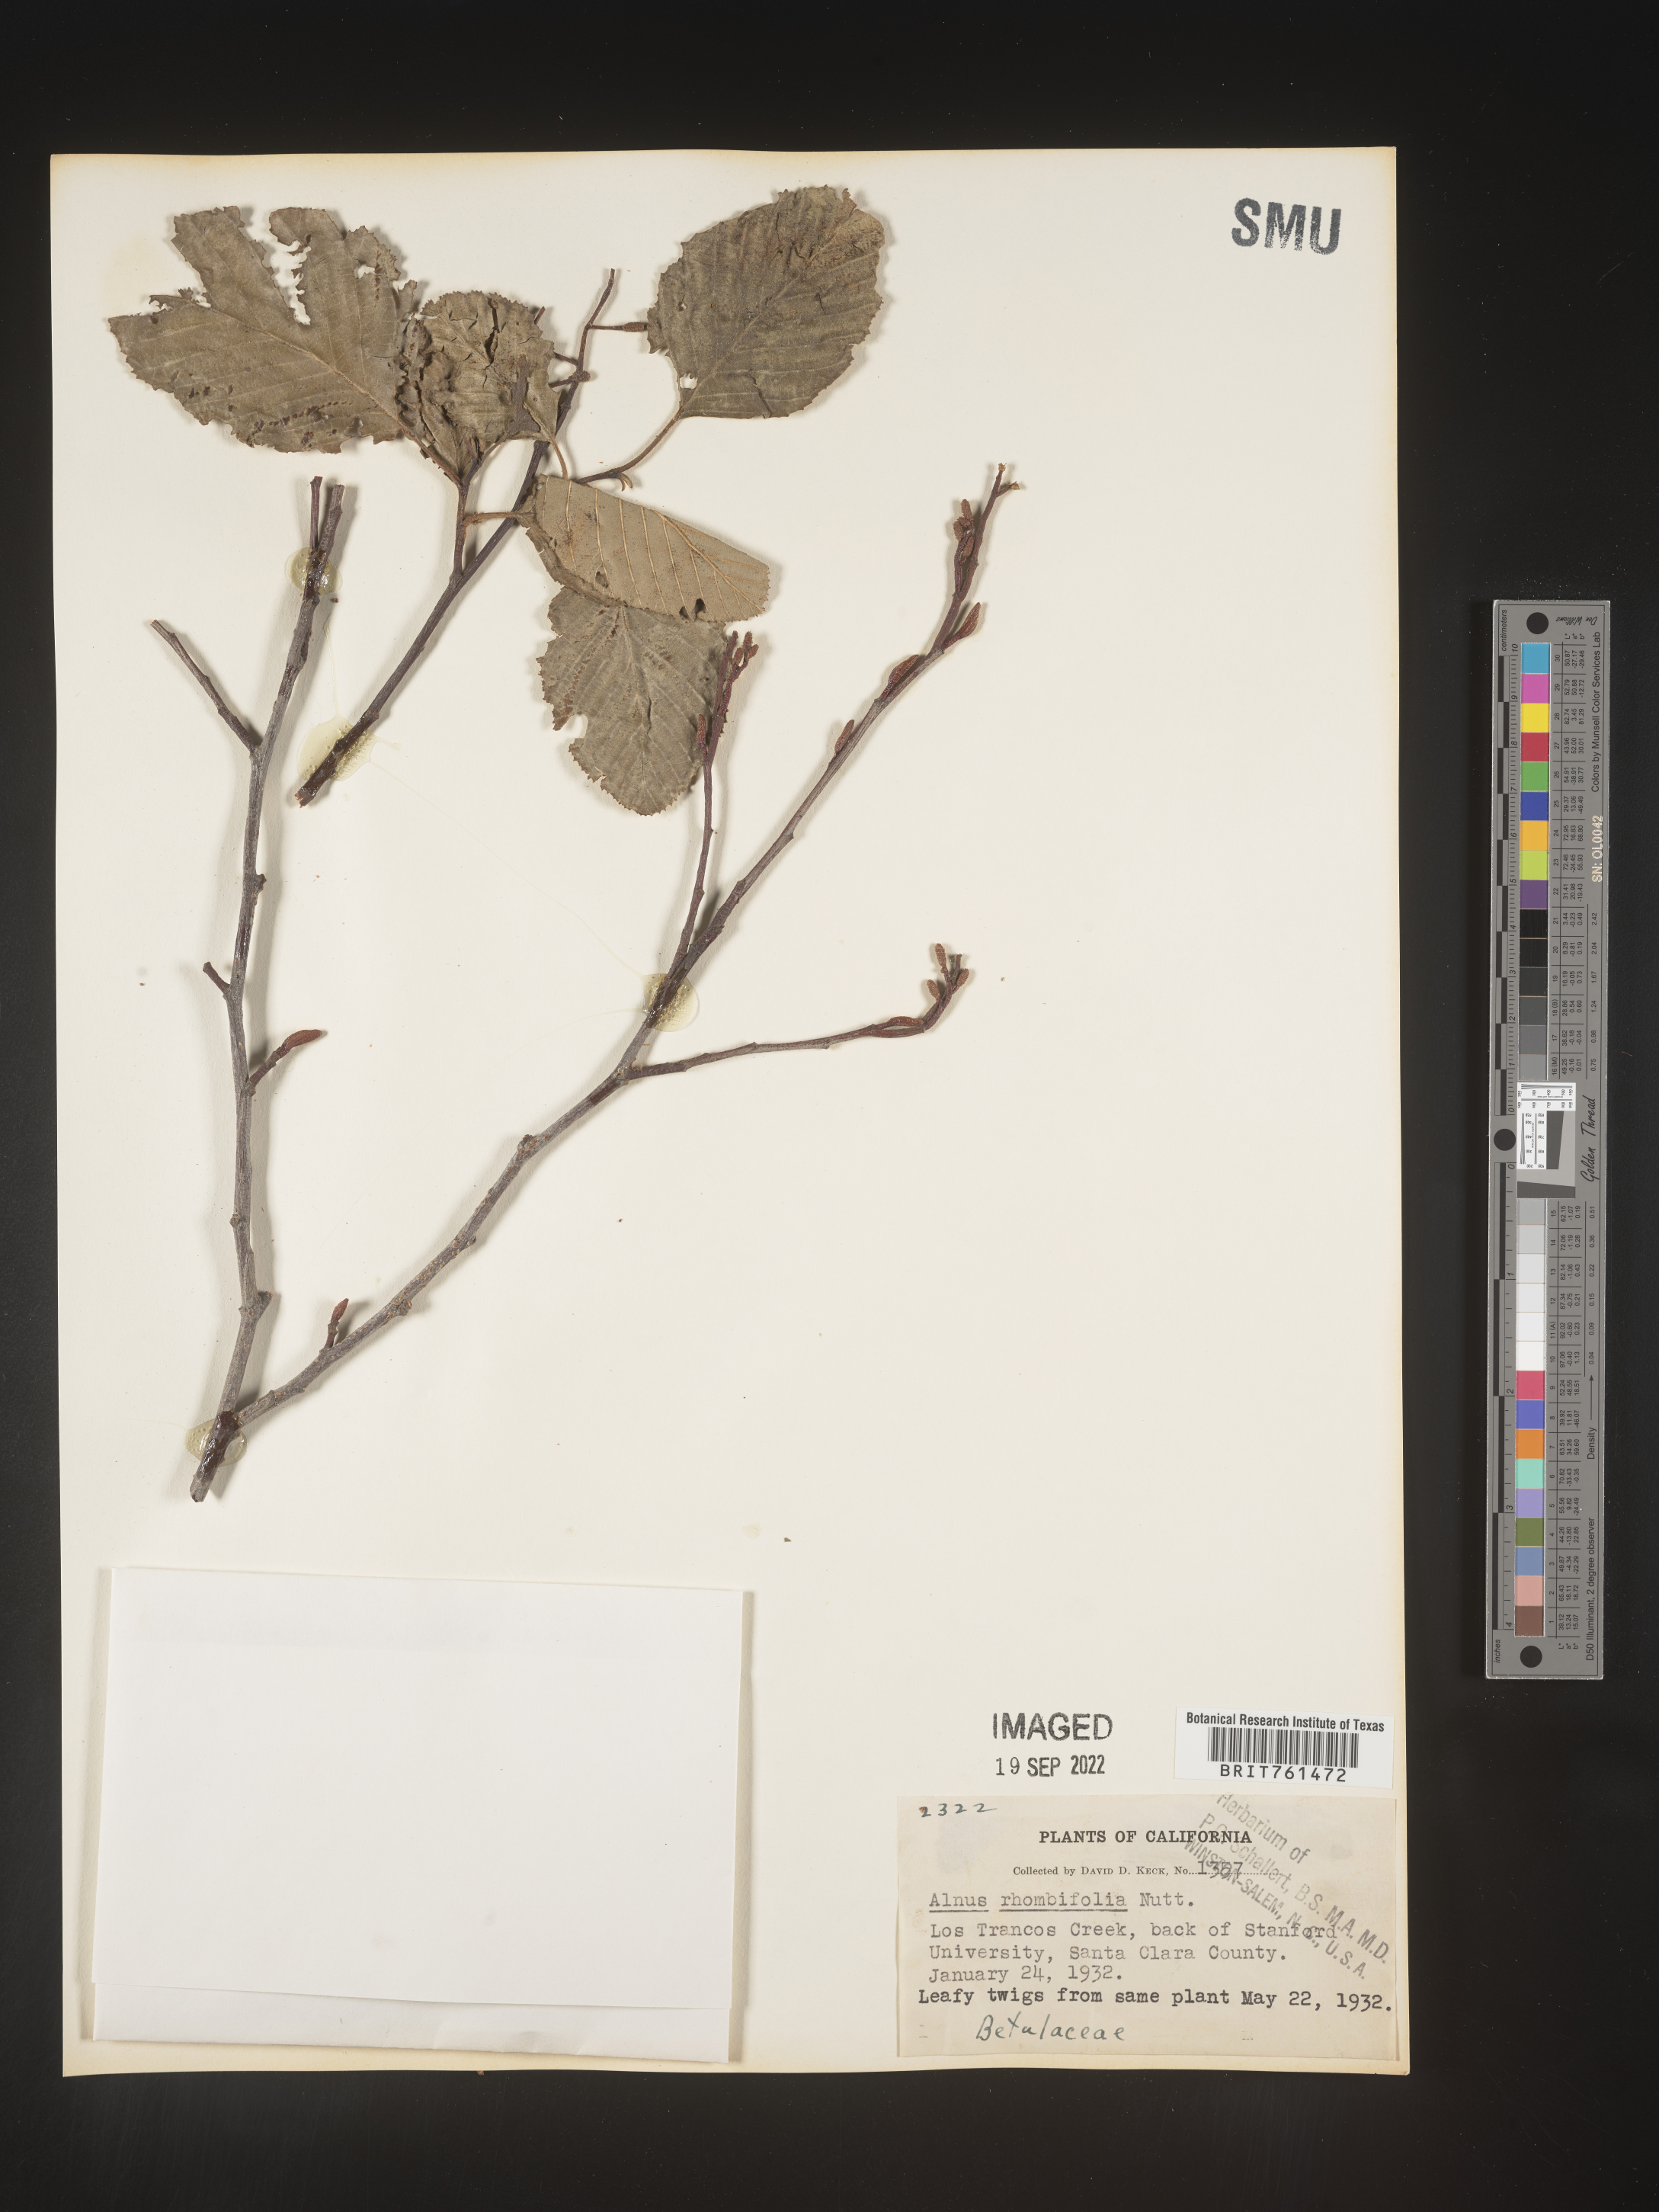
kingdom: Plantae
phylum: Tracheophyta
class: Magnoliopsida
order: Fagales
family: Betulaceae
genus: Alnus
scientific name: Alnus rhombifolia
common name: California alder
